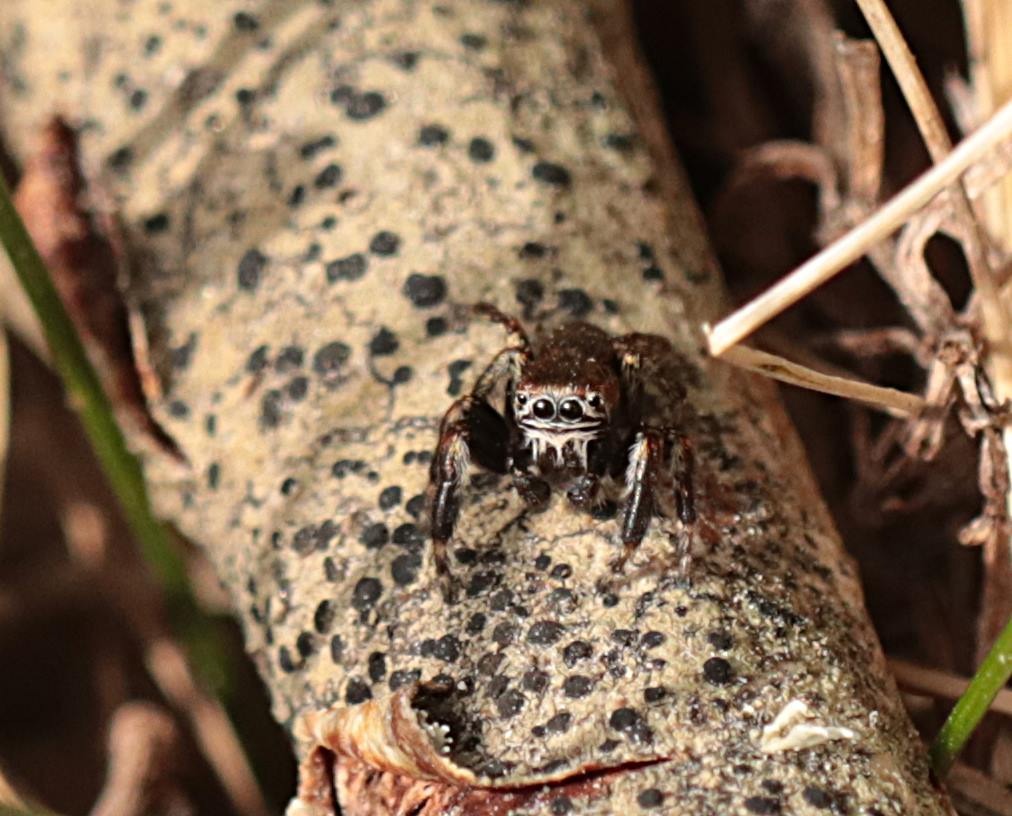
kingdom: Animalia
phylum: Arthropoda
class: Arachnida
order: Araneae
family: Salticidae
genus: Evarcha
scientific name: Evarcha arcuata
